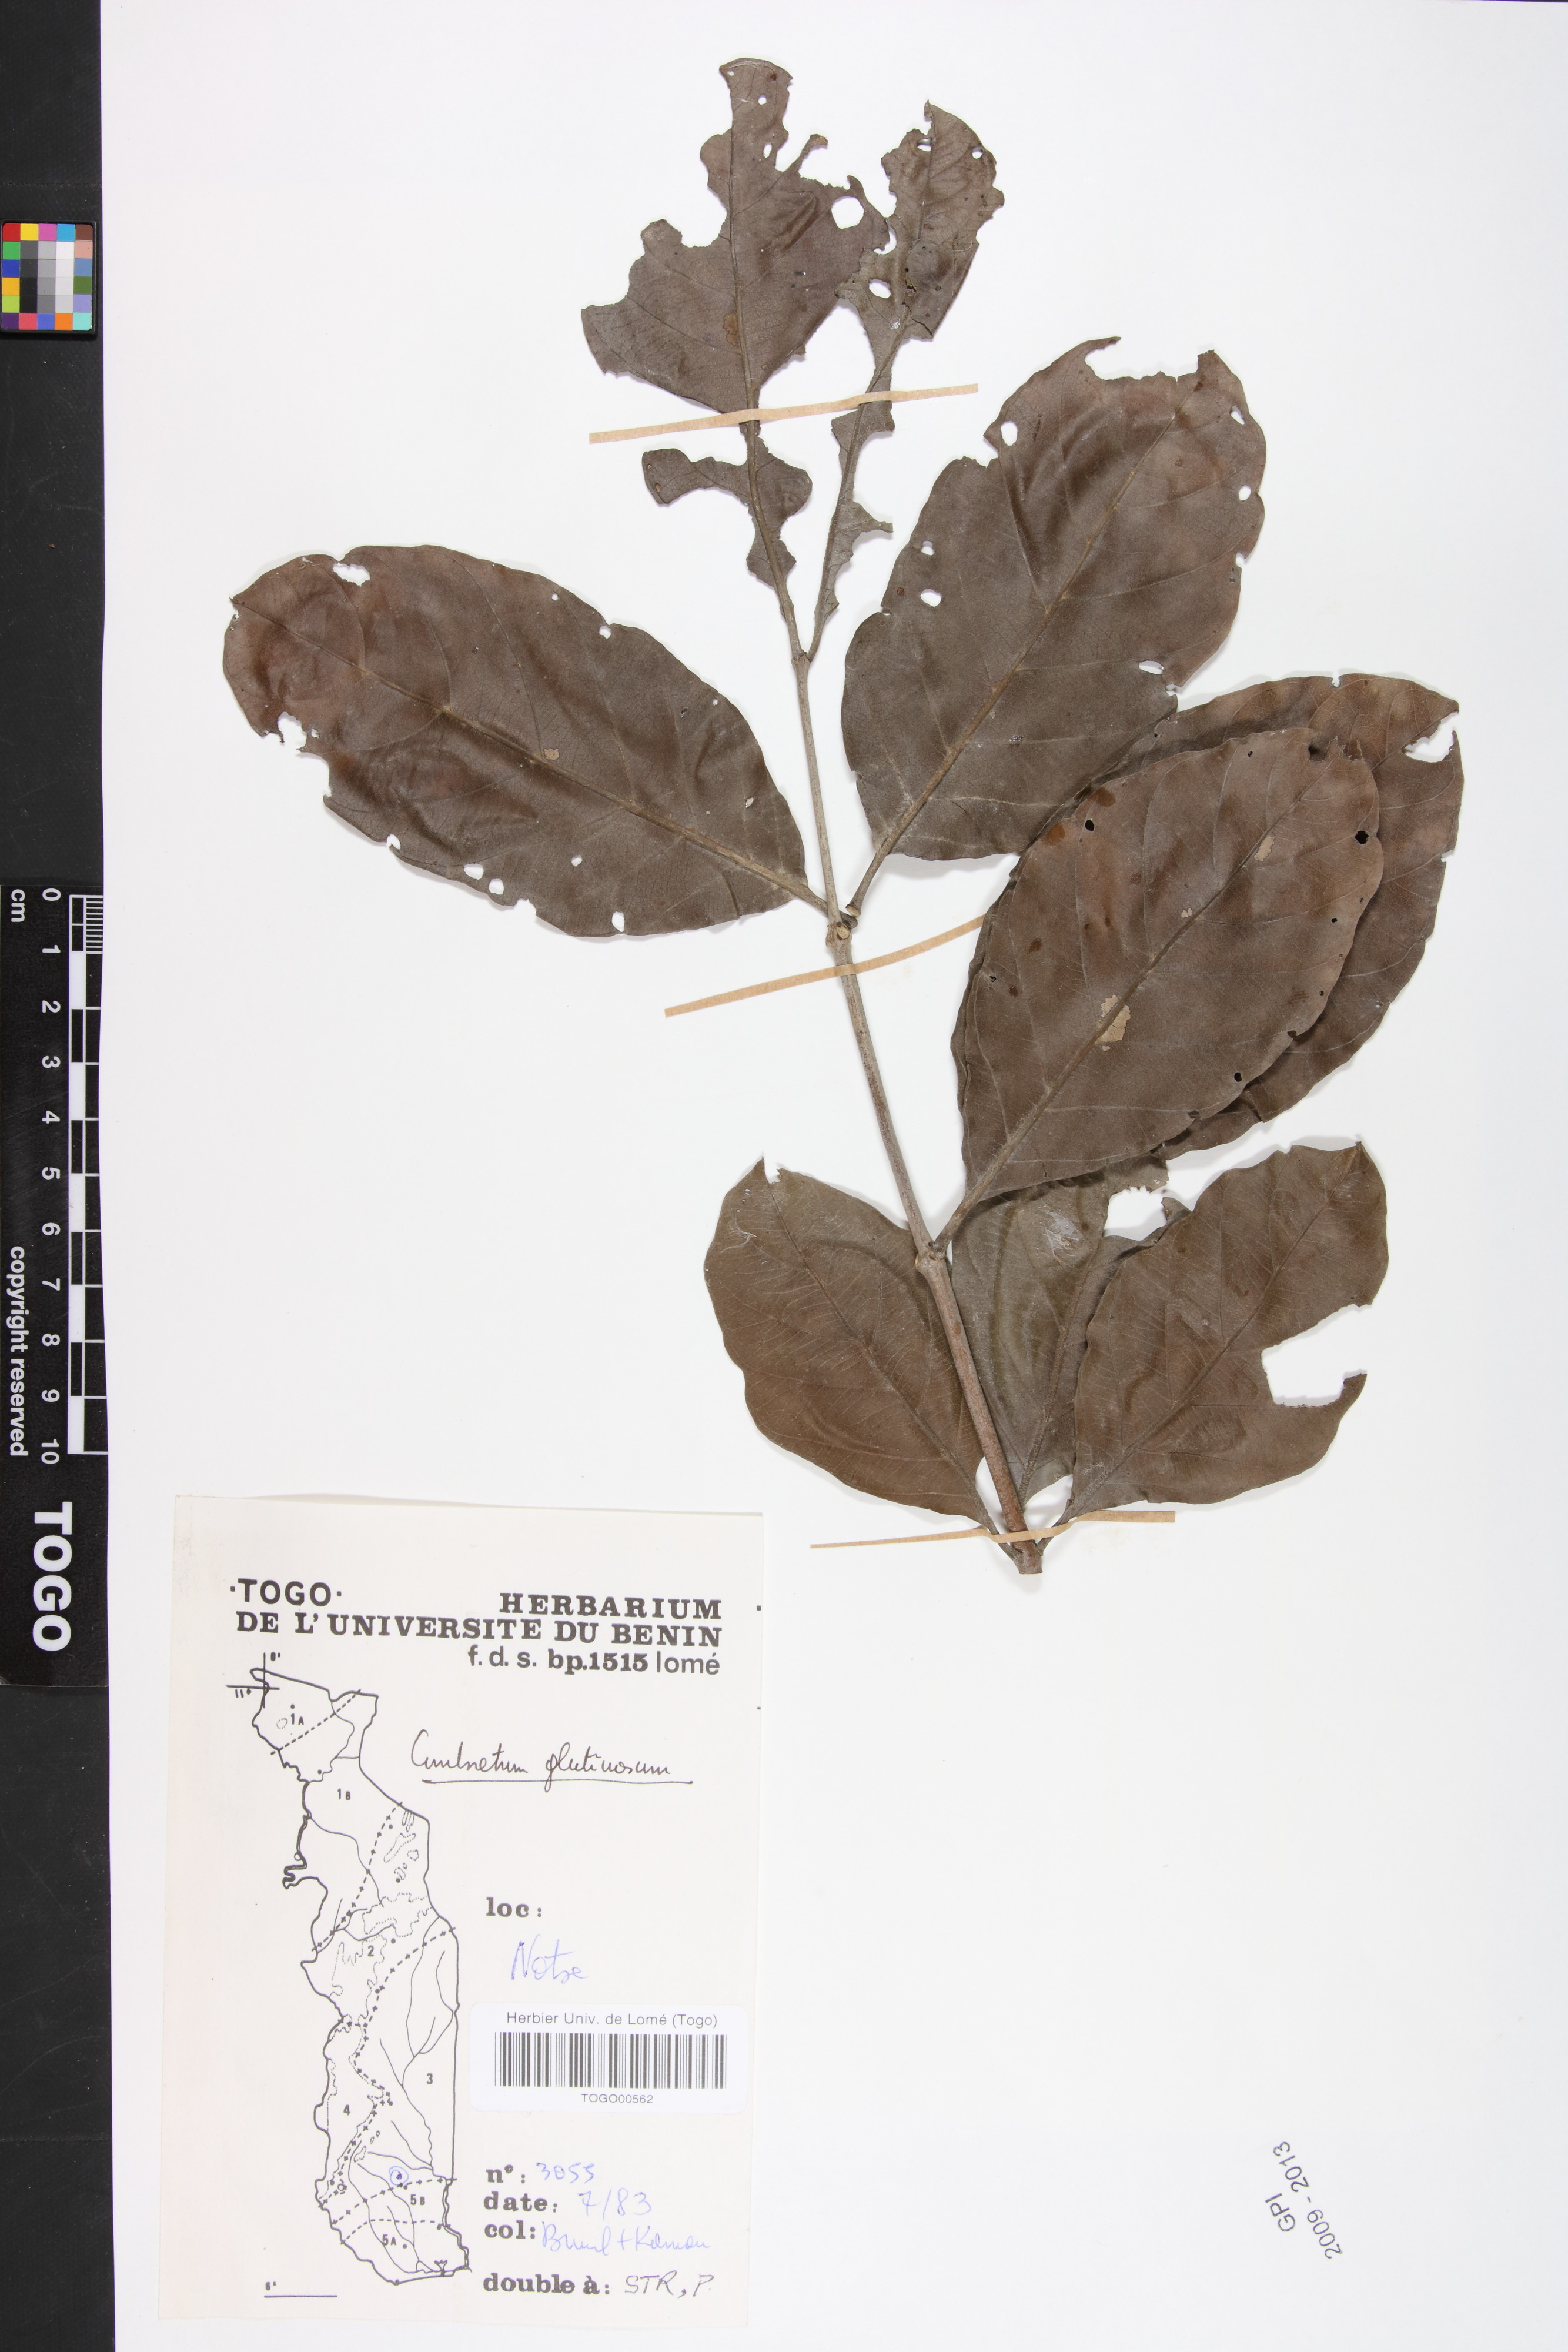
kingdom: Plantae
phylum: Tracheophyta
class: Magnoliopsida
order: Myrtales
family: Combretaceae
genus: Combretum
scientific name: Combretum glutinosum
